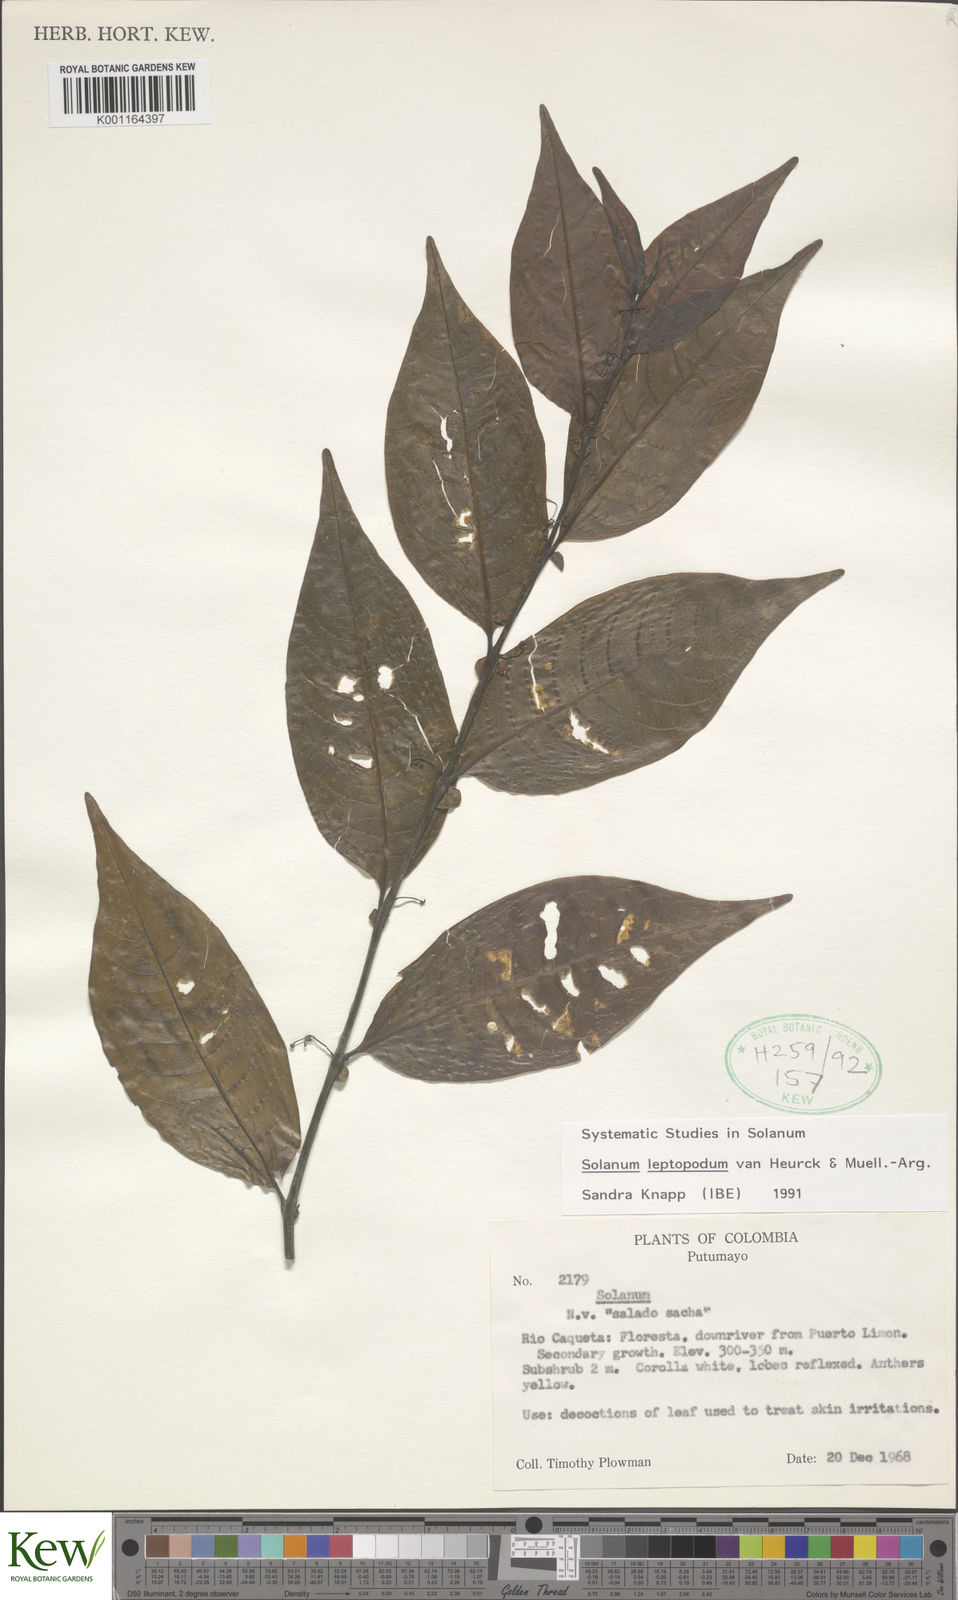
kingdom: Plantae
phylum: Tracheophyta
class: Magnoliopsida
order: Solanales
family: Solanaceae
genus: Solanum
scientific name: Solanum leptopodum
